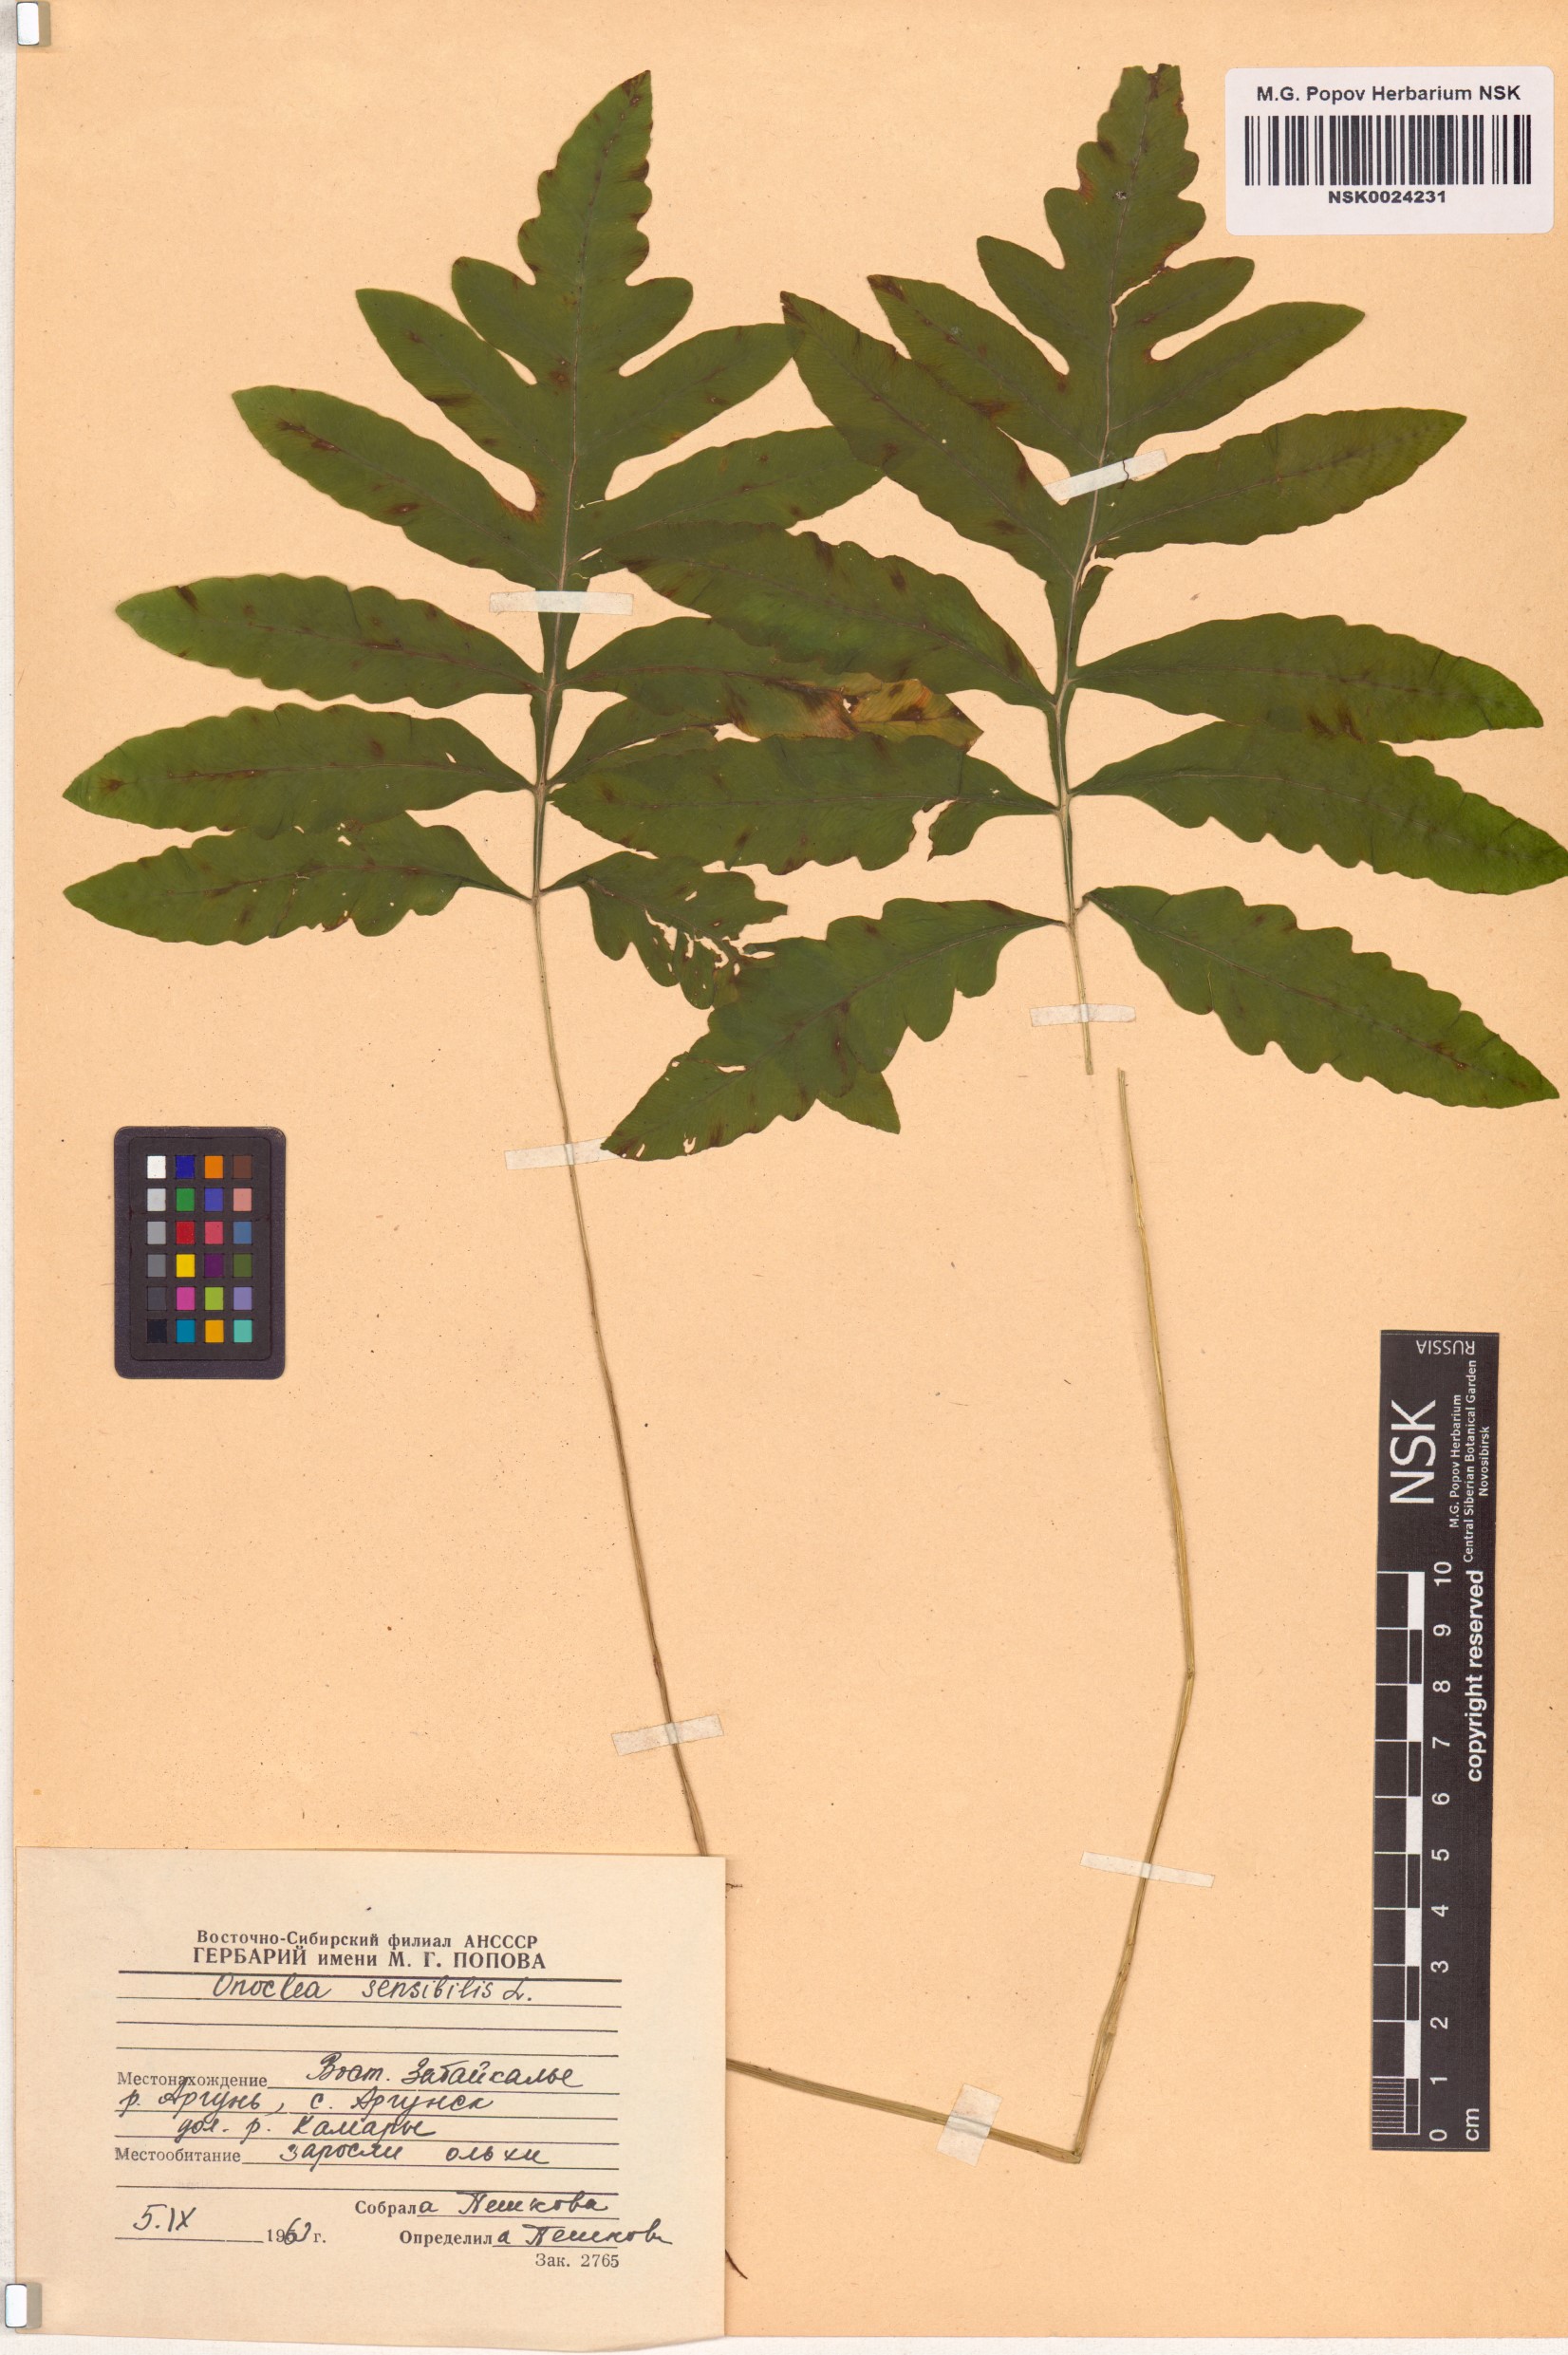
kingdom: Plantae
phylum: Tracheophyta
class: Polypodiopsida
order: Polypodiales
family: Onocleaceae
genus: Onoclea
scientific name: Onoclea sensibilis
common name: Sensitive fern
